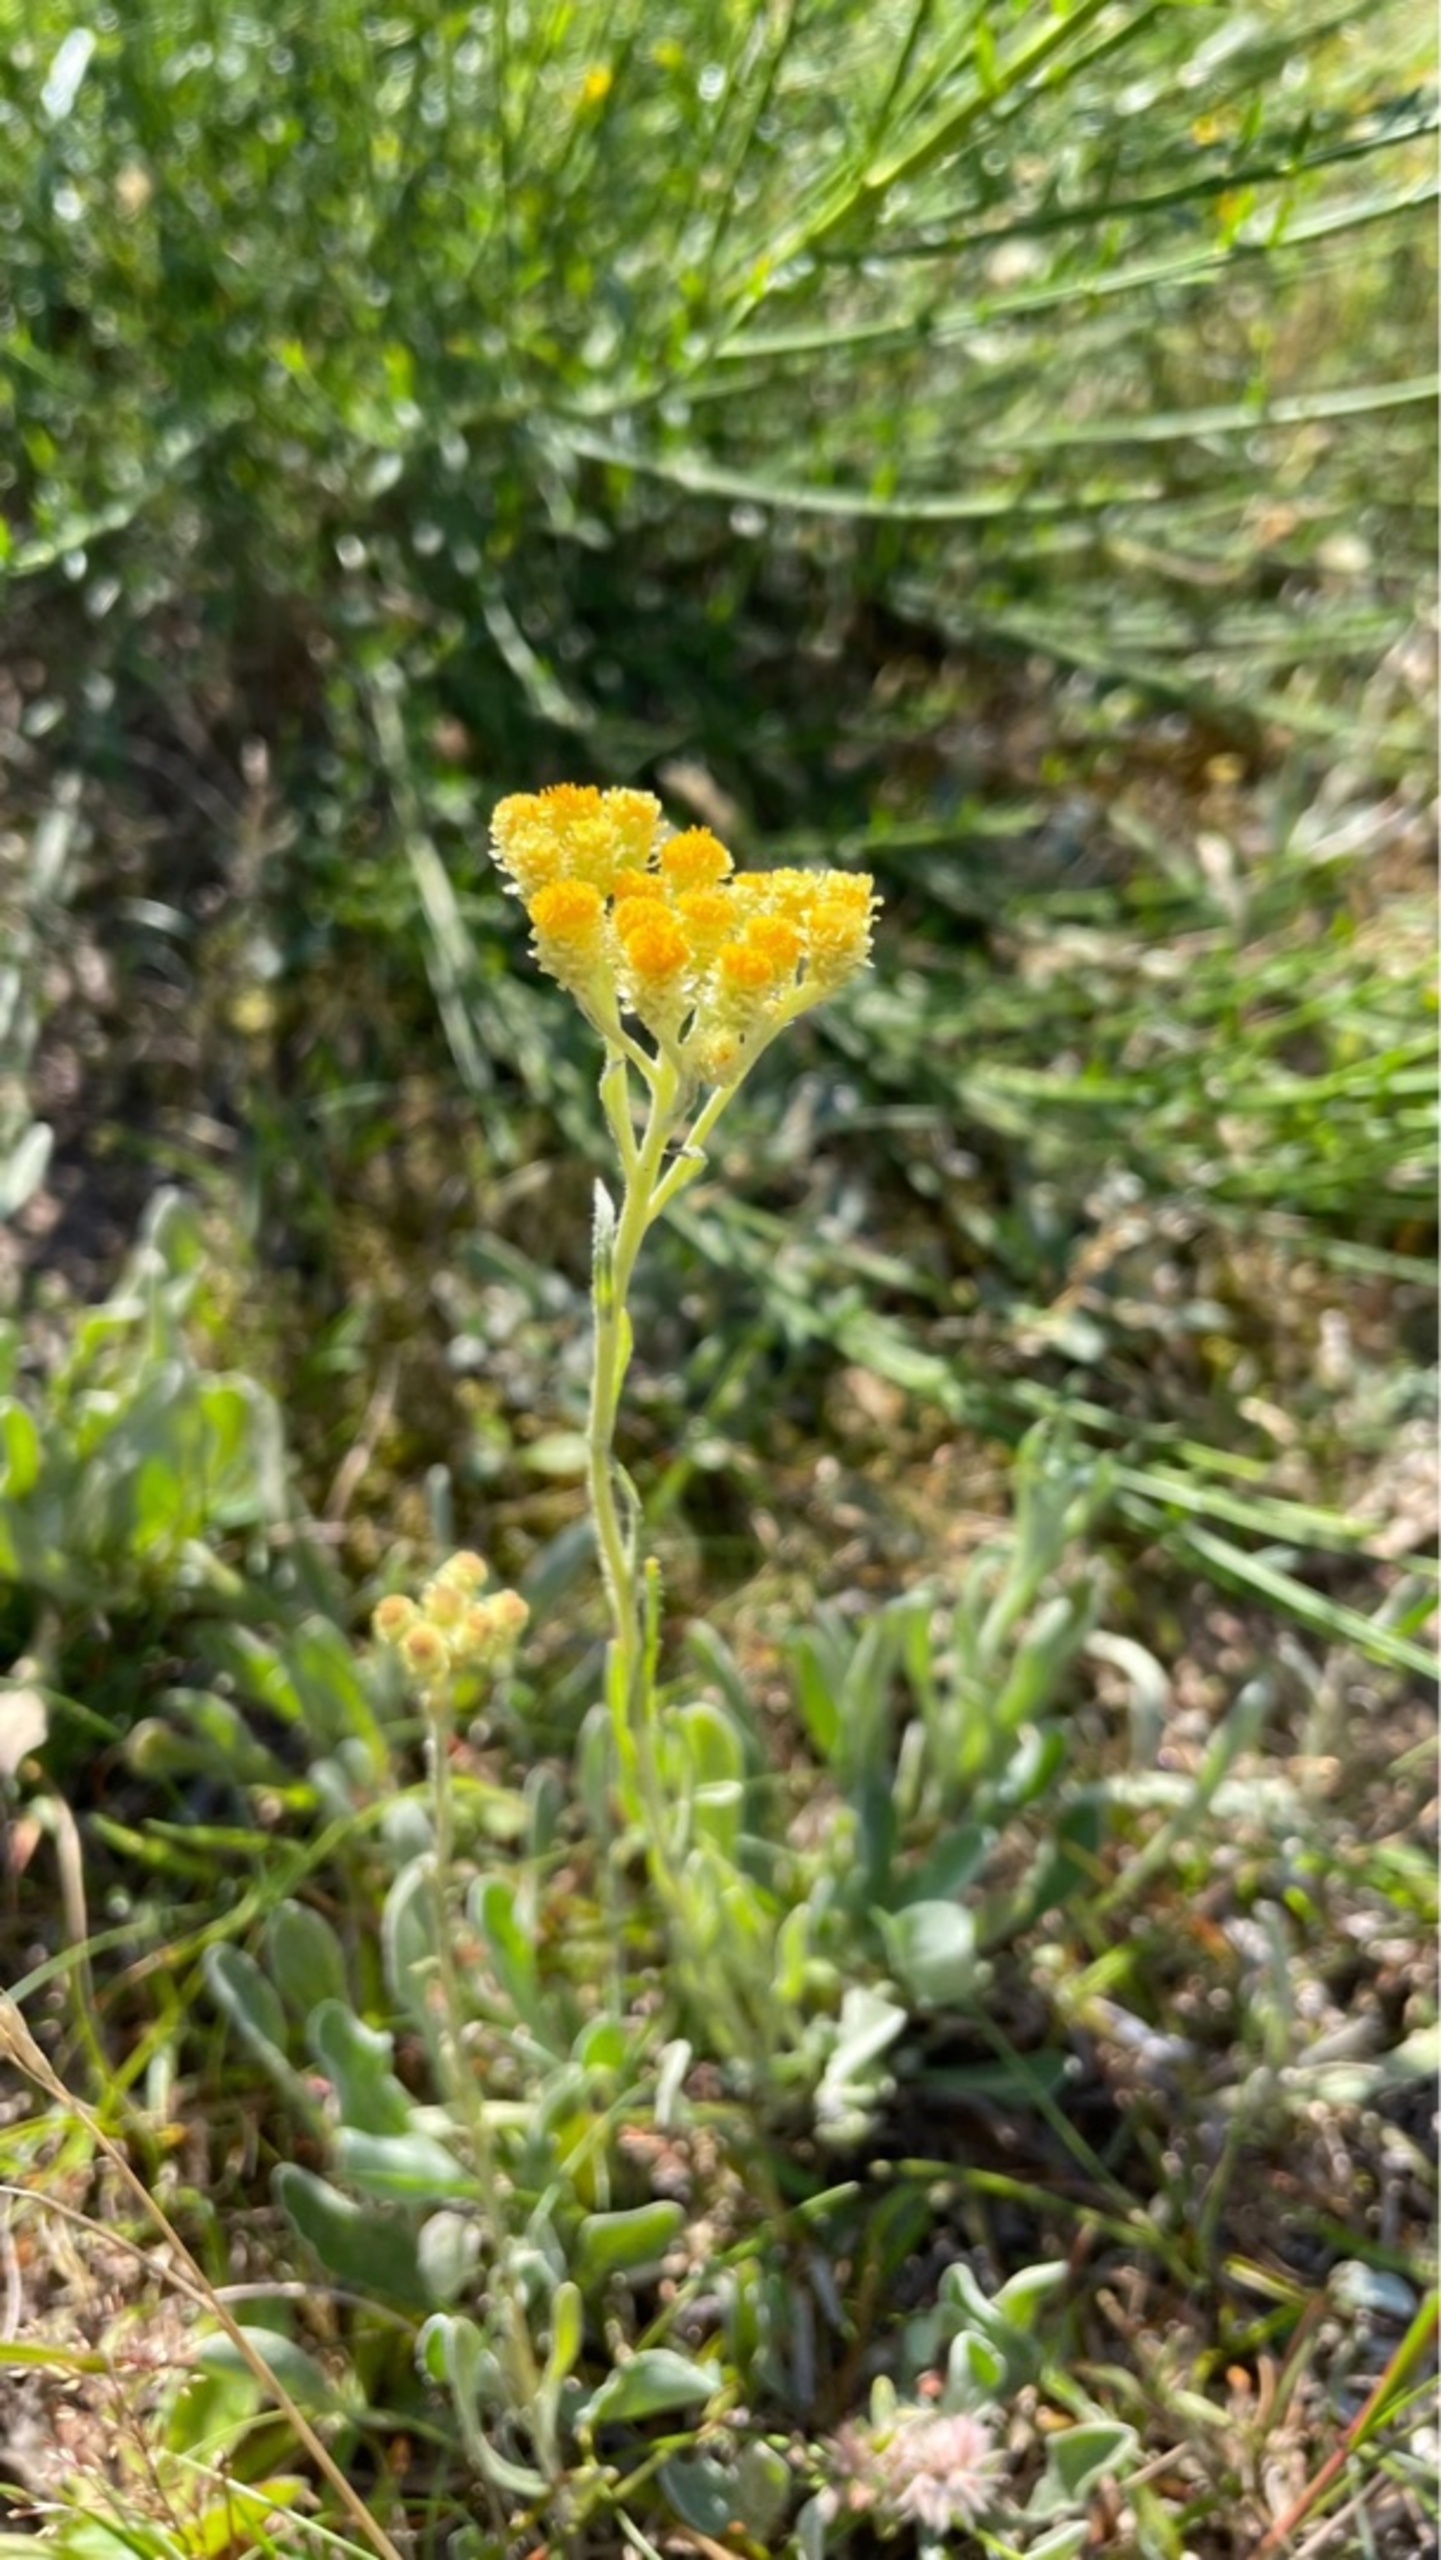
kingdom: Plantae
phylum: Tracheophyta
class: Magnoliopsida
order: Asterales
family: Asteraceae
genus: Helichrysum
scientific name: Helichrysum arenarium
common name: Gul evighedsblomst
